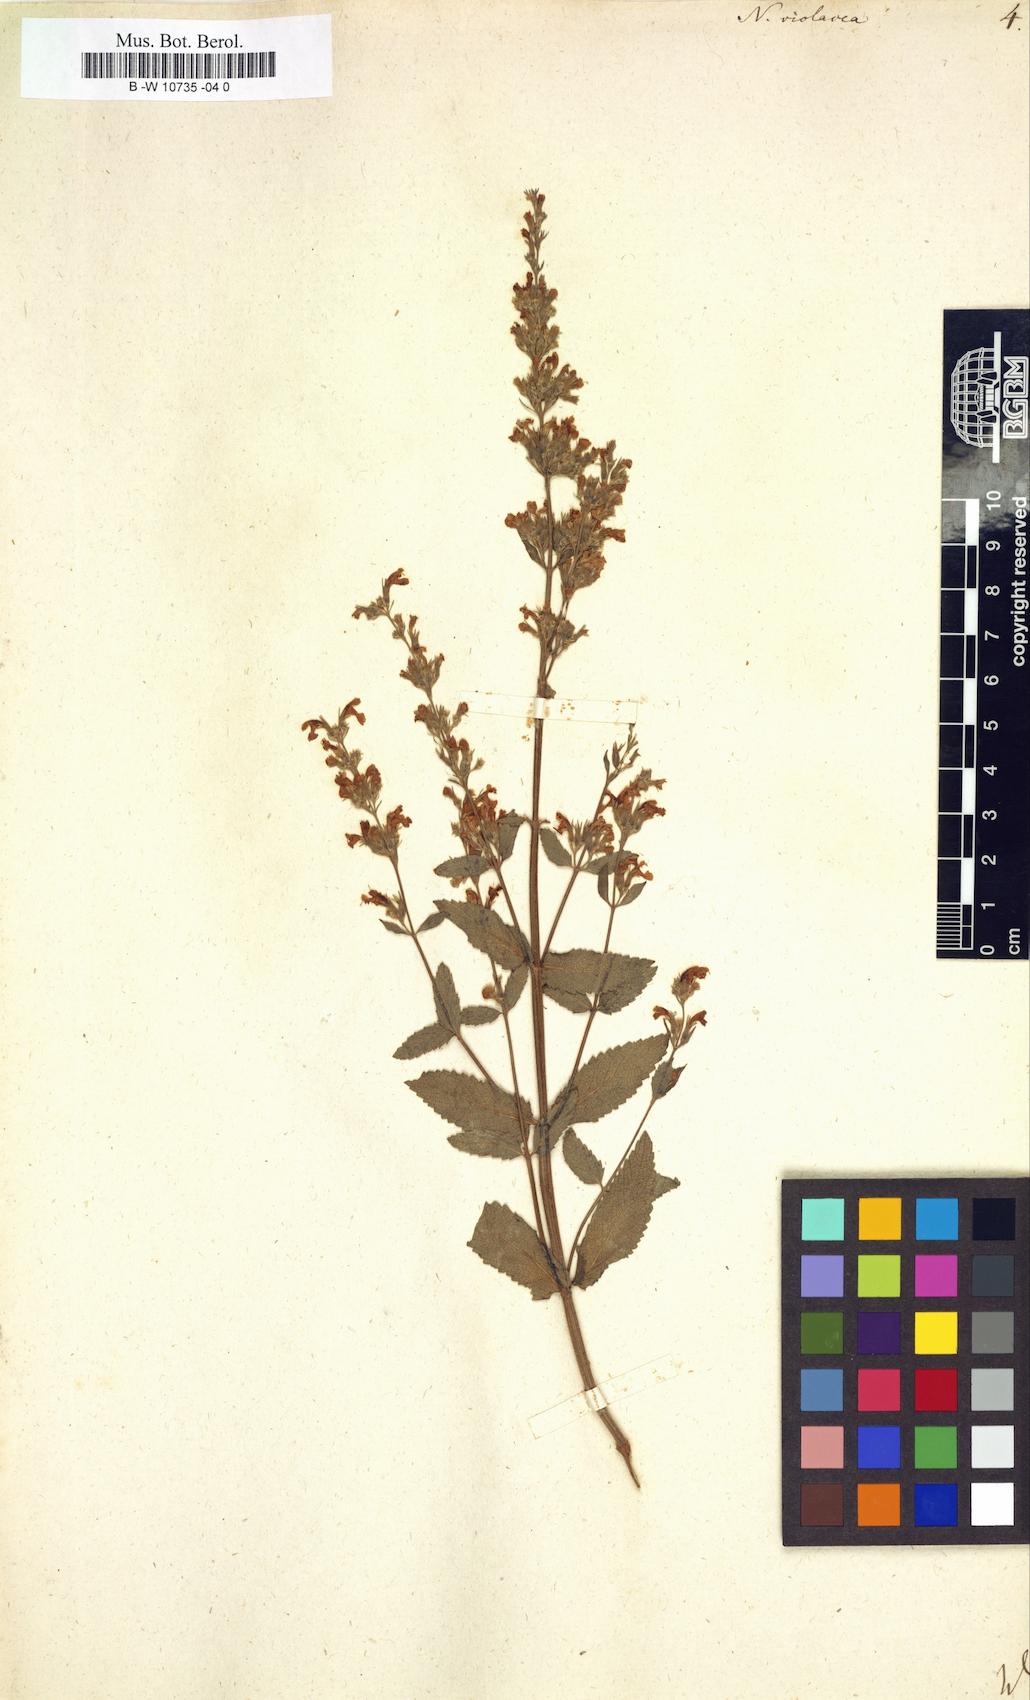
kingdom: Plantae
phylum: Tracheophyta
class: Magnoliopsida
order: Lamiales
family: Lamiaceae
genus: Nepeta
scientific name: Nepeta nuda
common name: Hairless catmint
